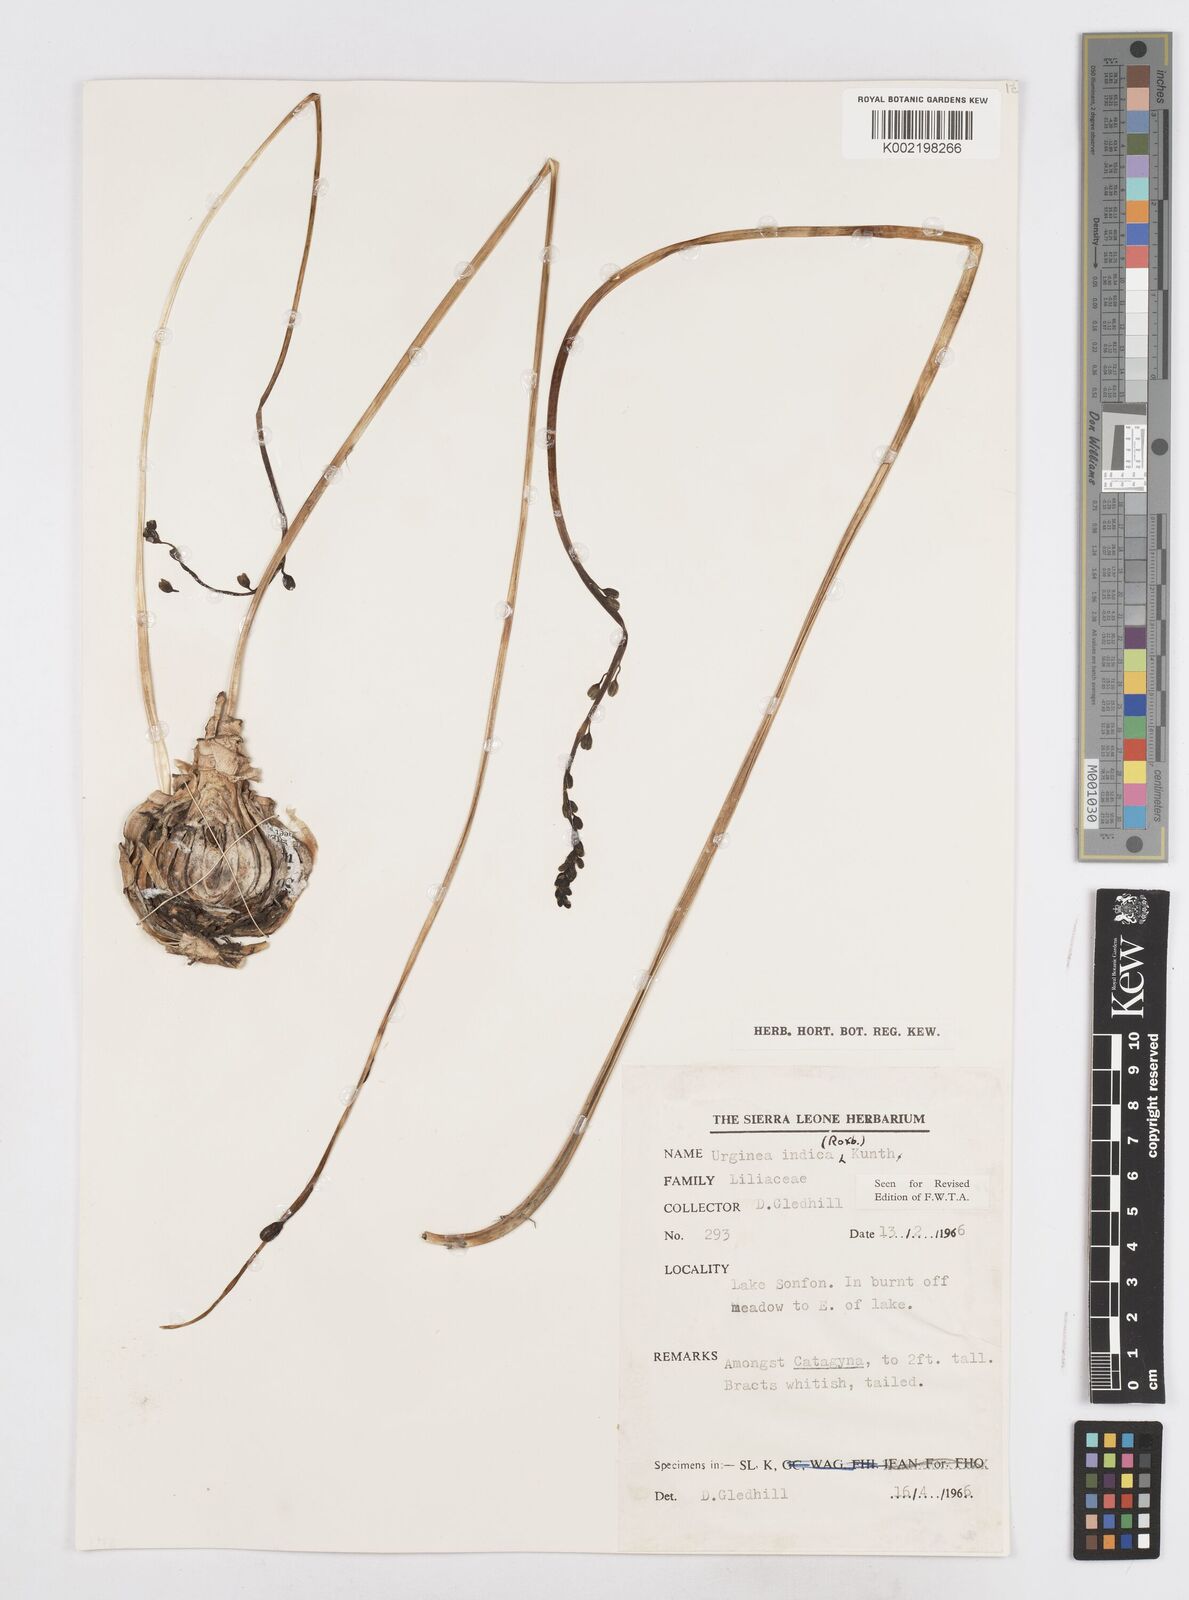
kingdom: Plantae
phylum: Tracheophyta
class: Liliopsida
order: Asparagales
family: Asparagaceae
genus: Drimia
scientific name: Drimia indica
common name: Indian-squill
